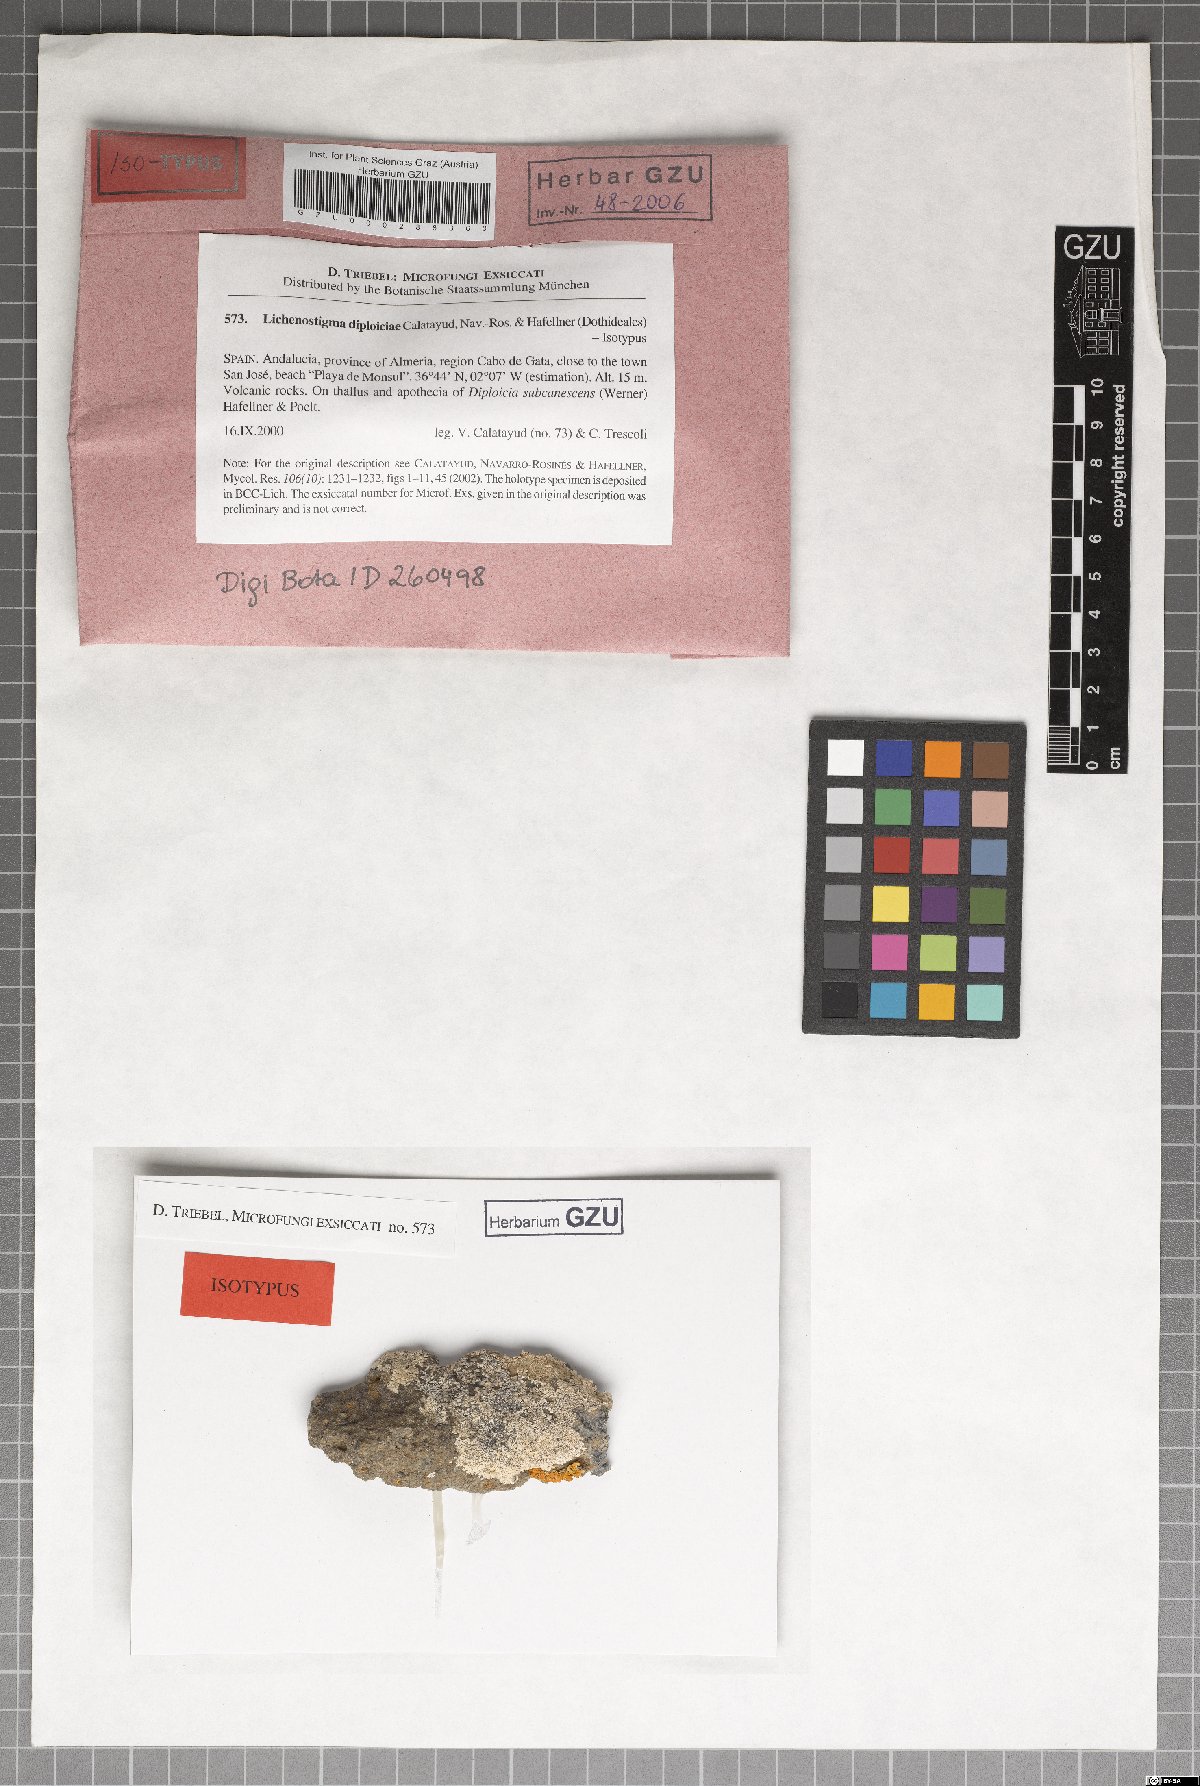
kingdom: Fungi
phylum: Ascomycota
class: Dothideomycetes
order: Lichenotheliales
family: Lichenotheliaceae
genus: Lichenostigma
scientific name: Lichenostigma dipliociae
